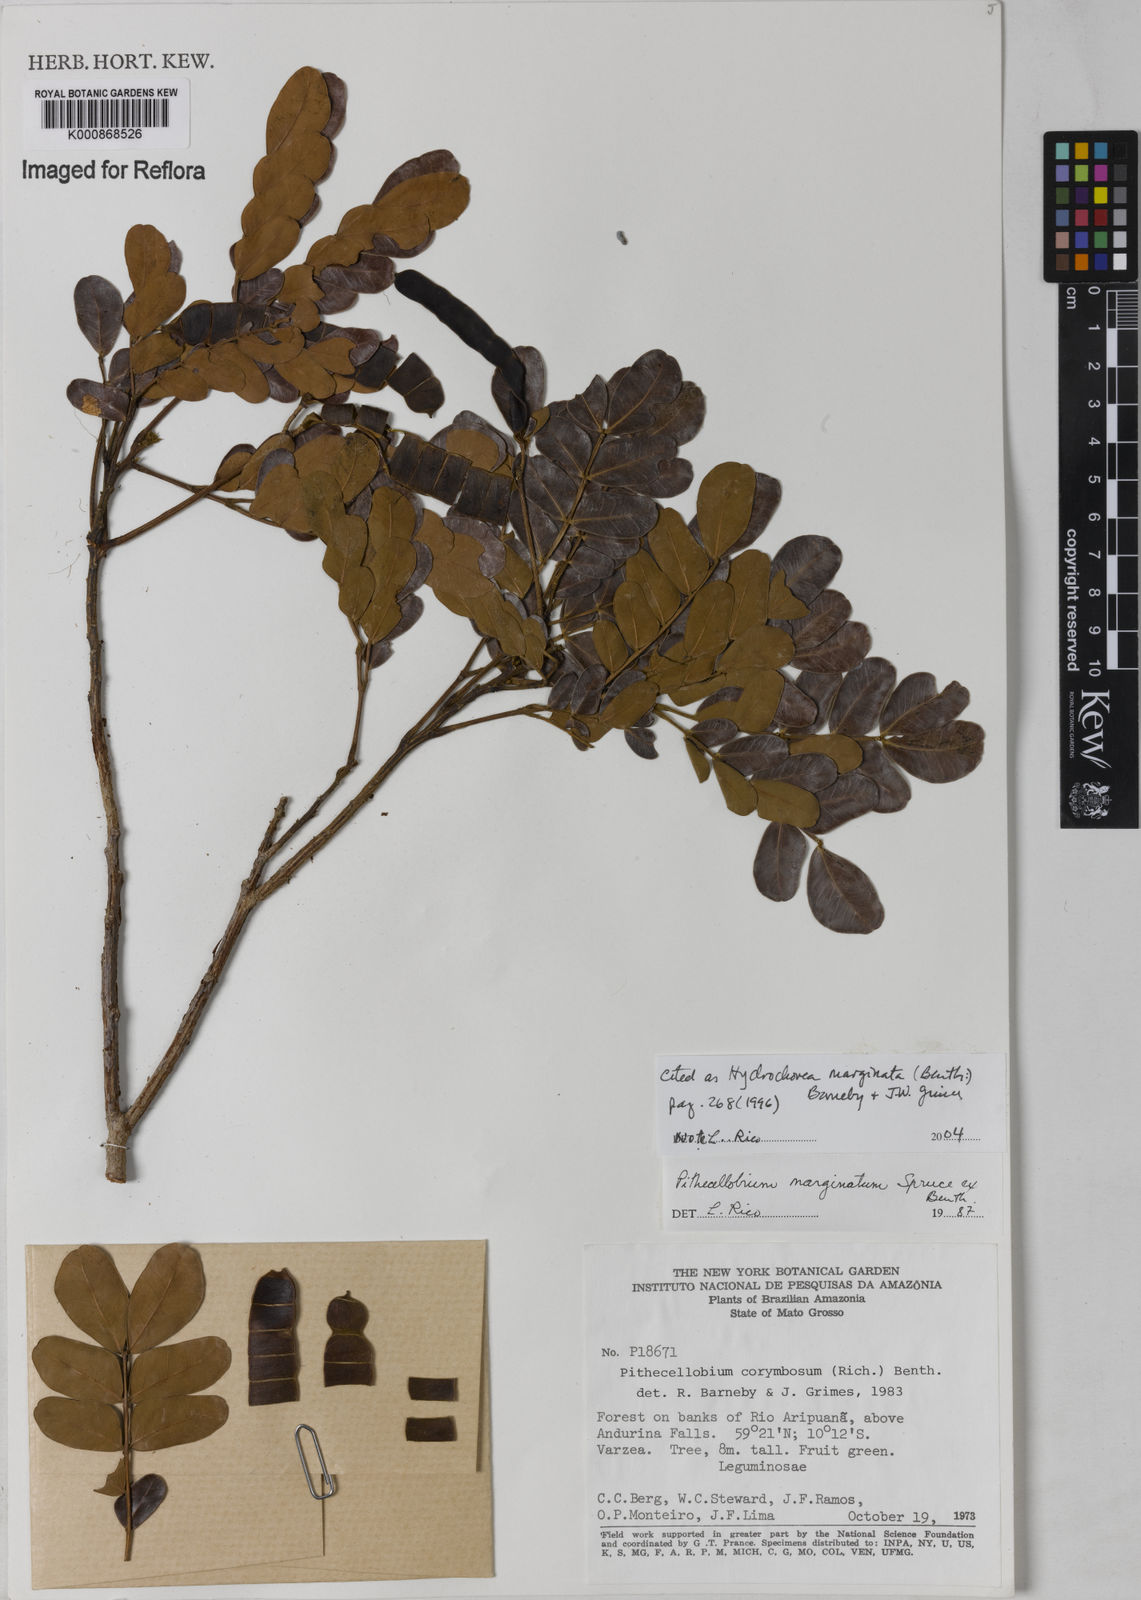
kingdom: Plantae
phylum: Tracheophyta
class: Magnoliopsida
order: Fabales
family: Fabaceae
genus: Hydrochorea
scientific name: Hydrochorea marginata
